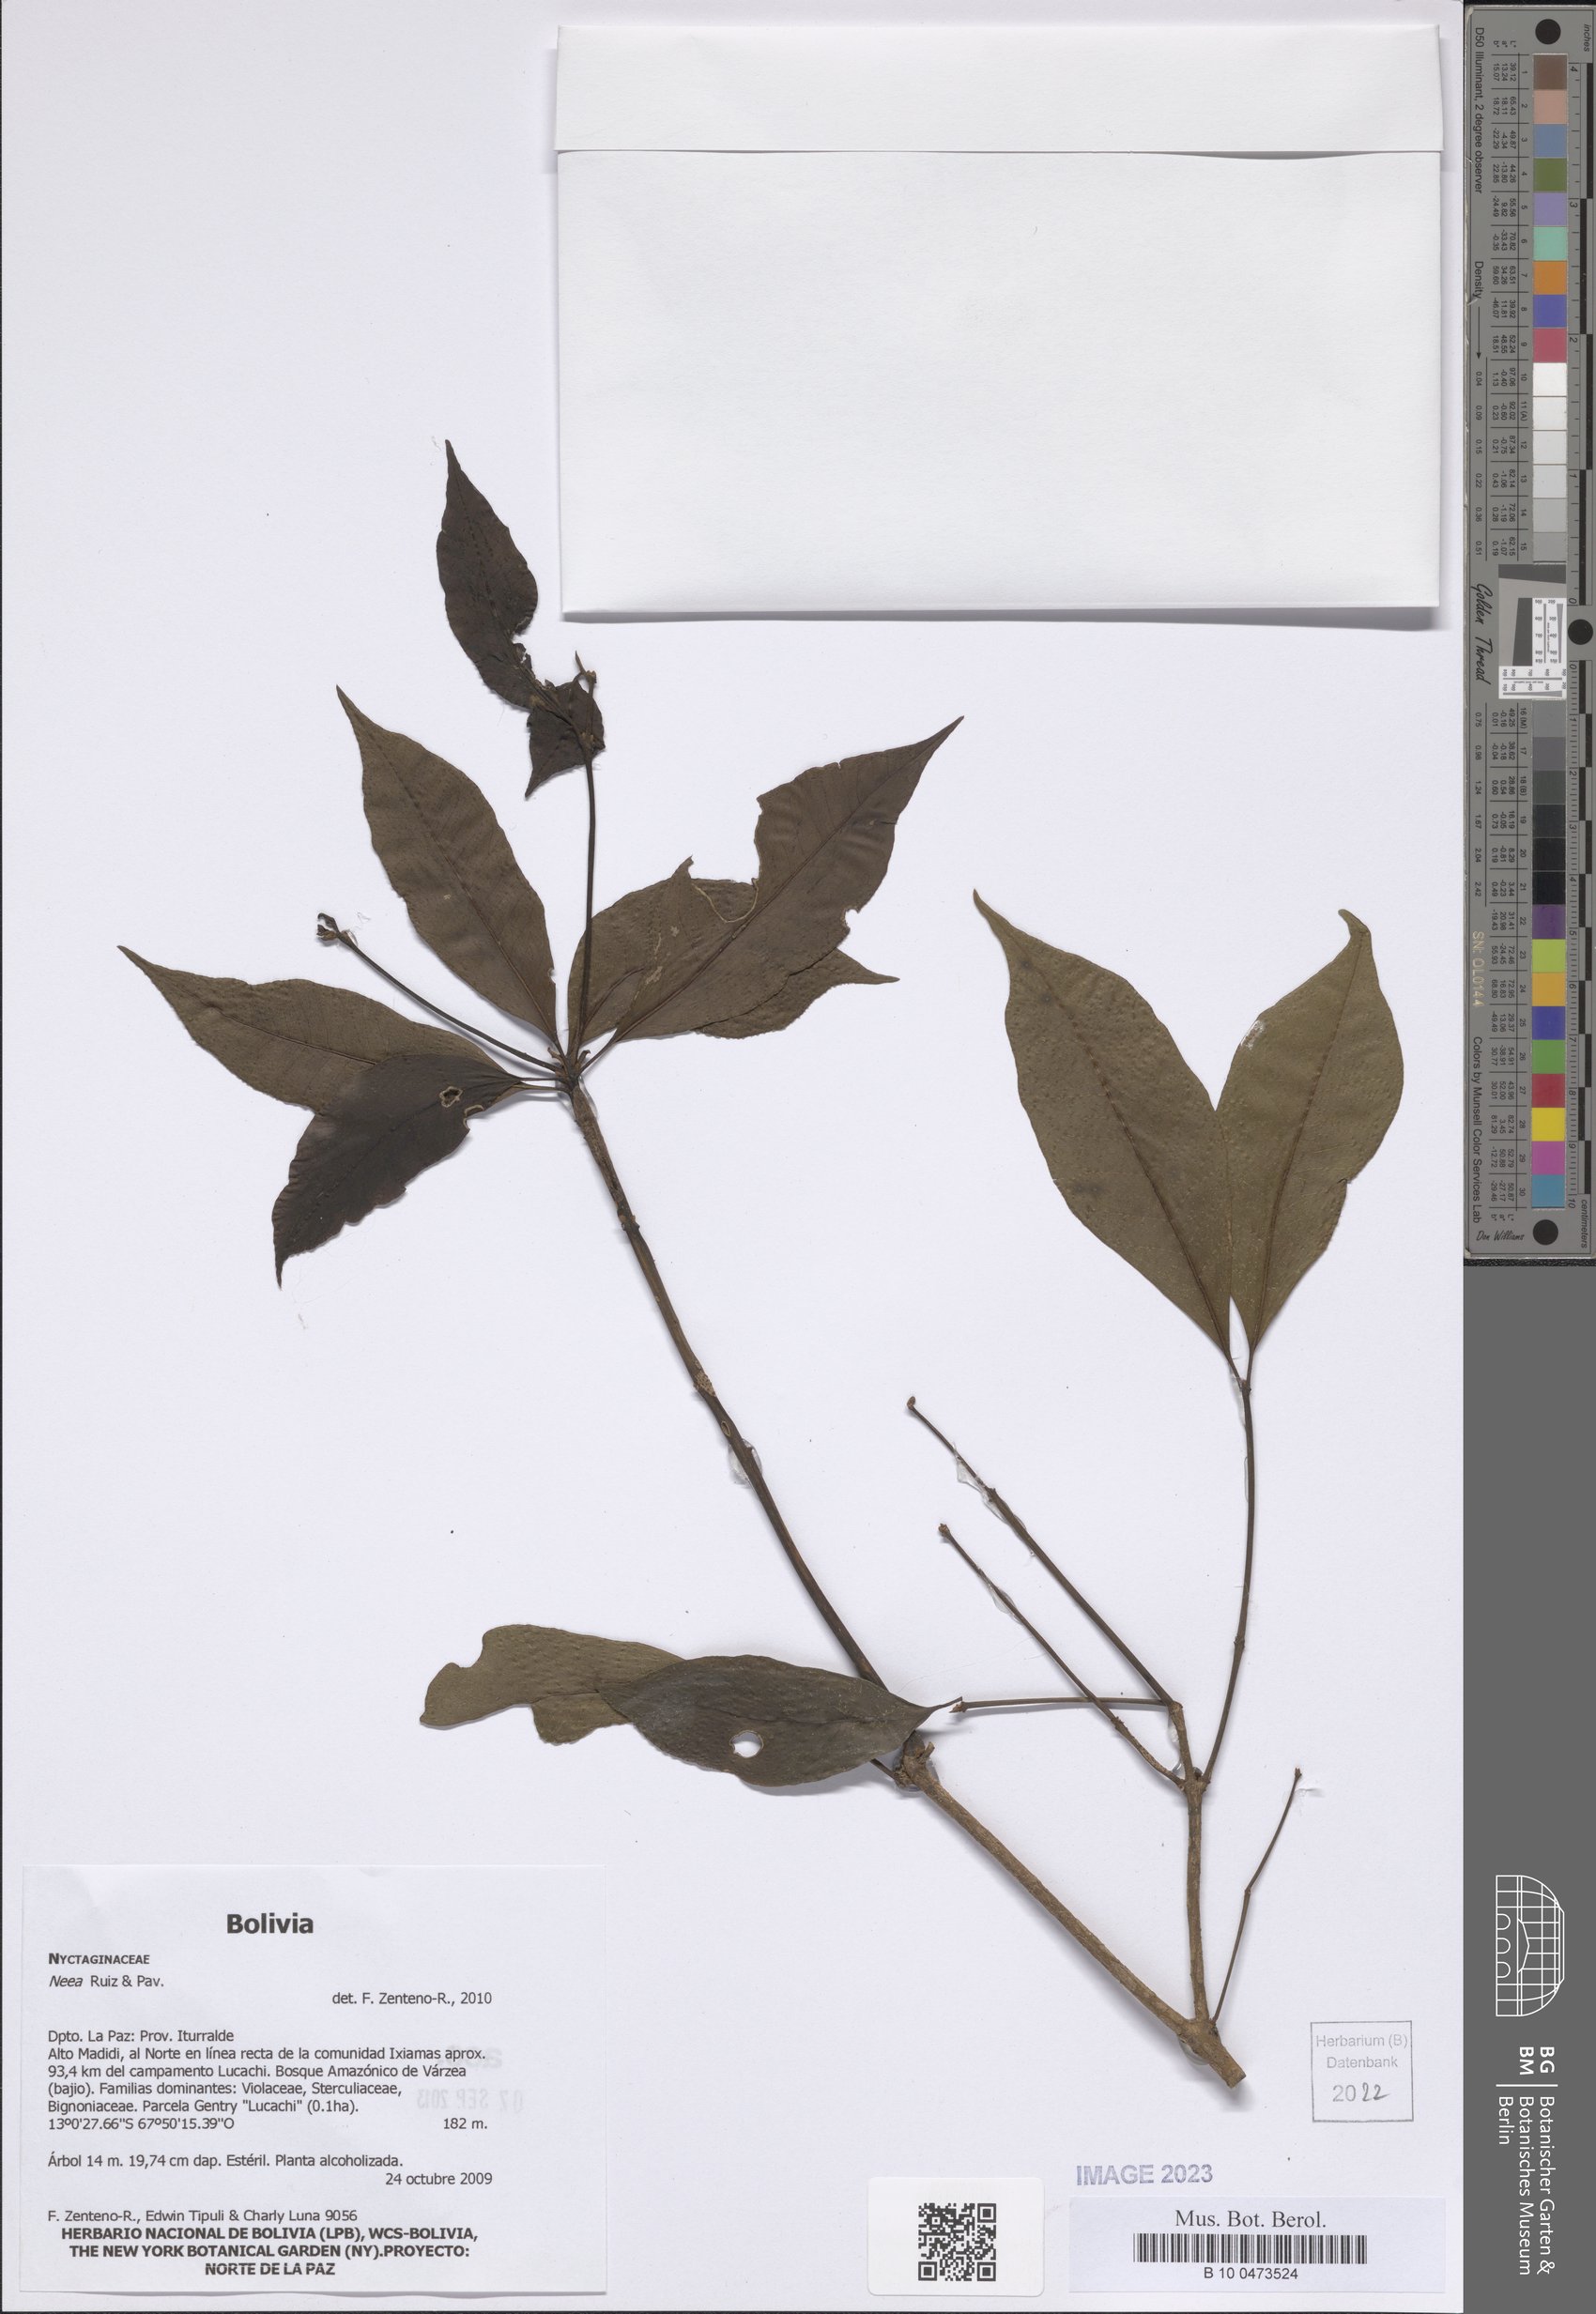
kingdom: Plantae
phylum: Tracheophyta
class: Magnoliopsida
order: Caryophyllales
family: Nyctaginaceae
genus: Neea
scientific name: Neea
